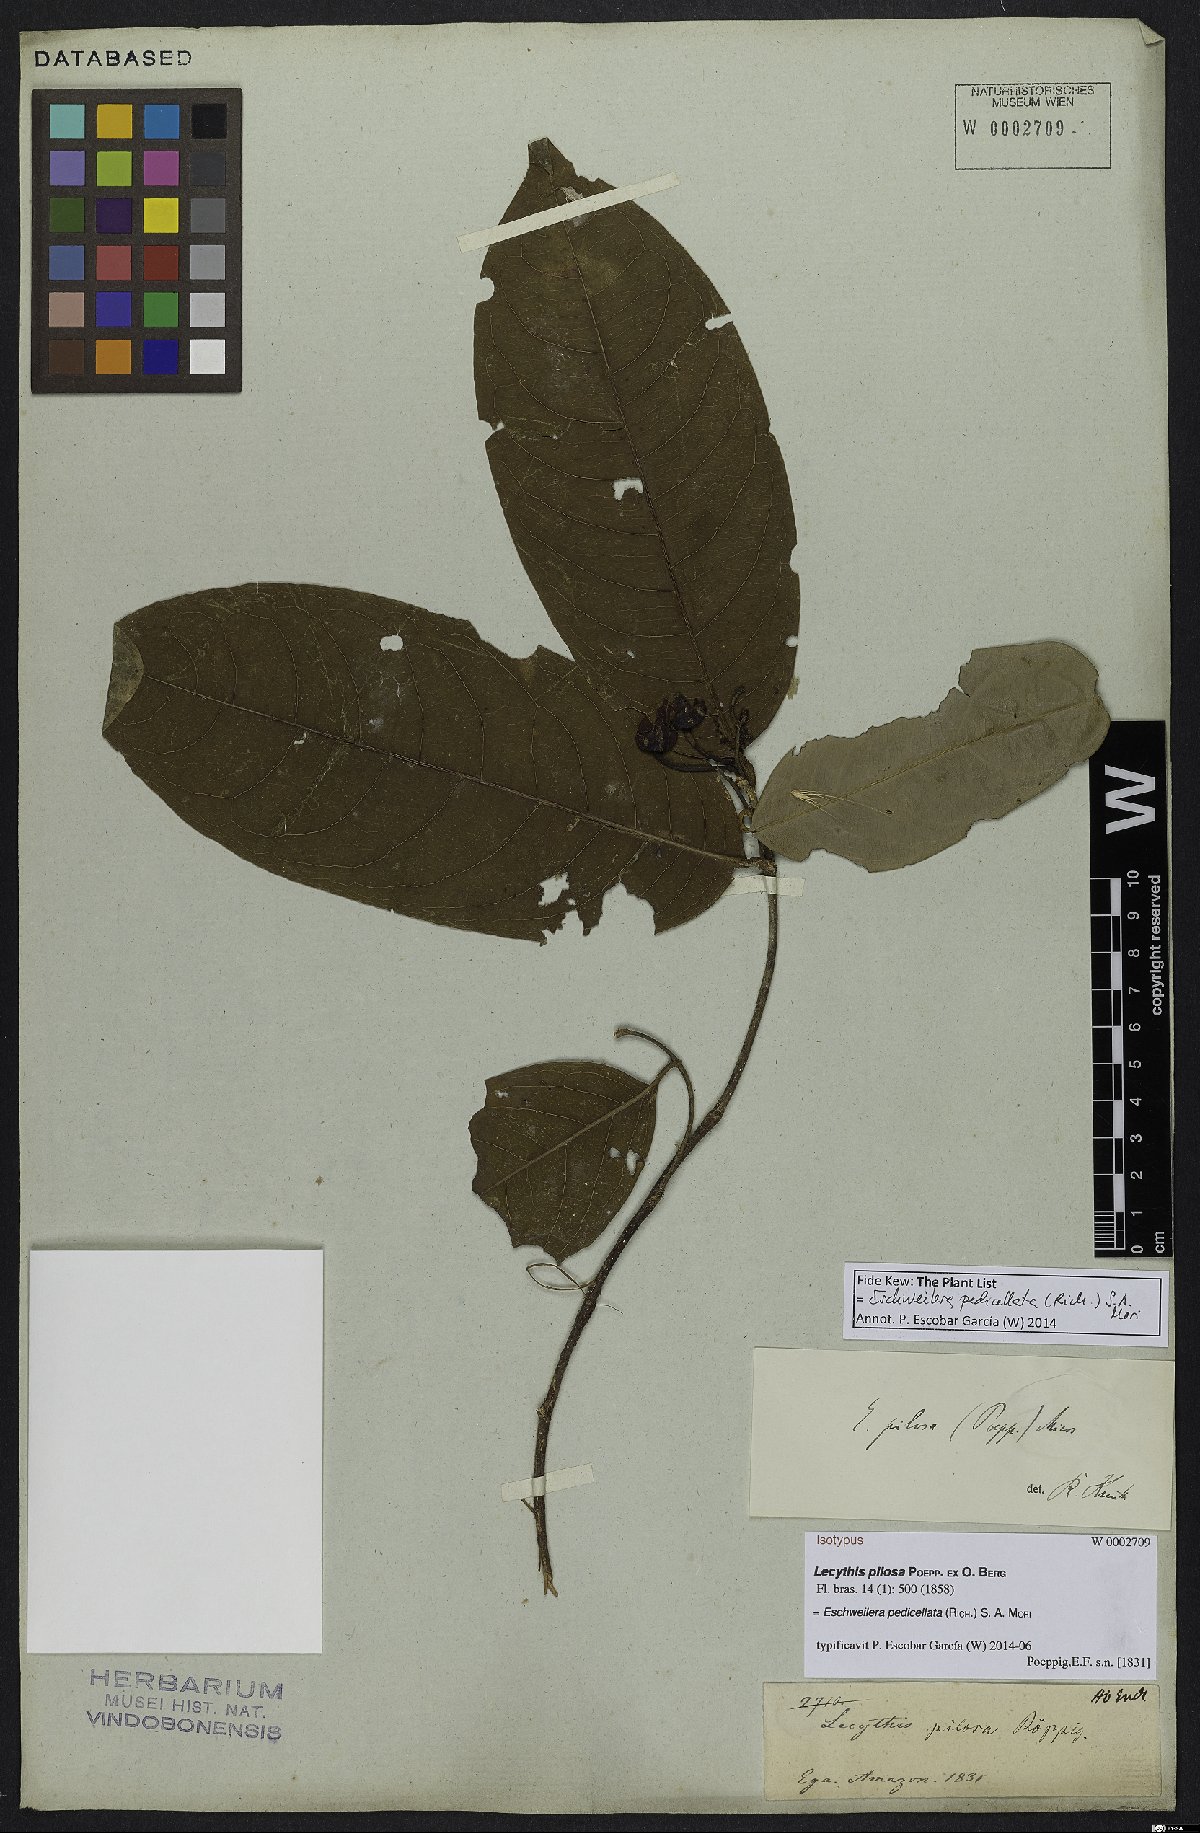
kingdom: Plantae
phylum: Tracheophyta
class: Magnoliopsida
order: Ericales
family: Lecythidaceae
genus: Eschweilera
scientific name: Eschweilera pedicellata
